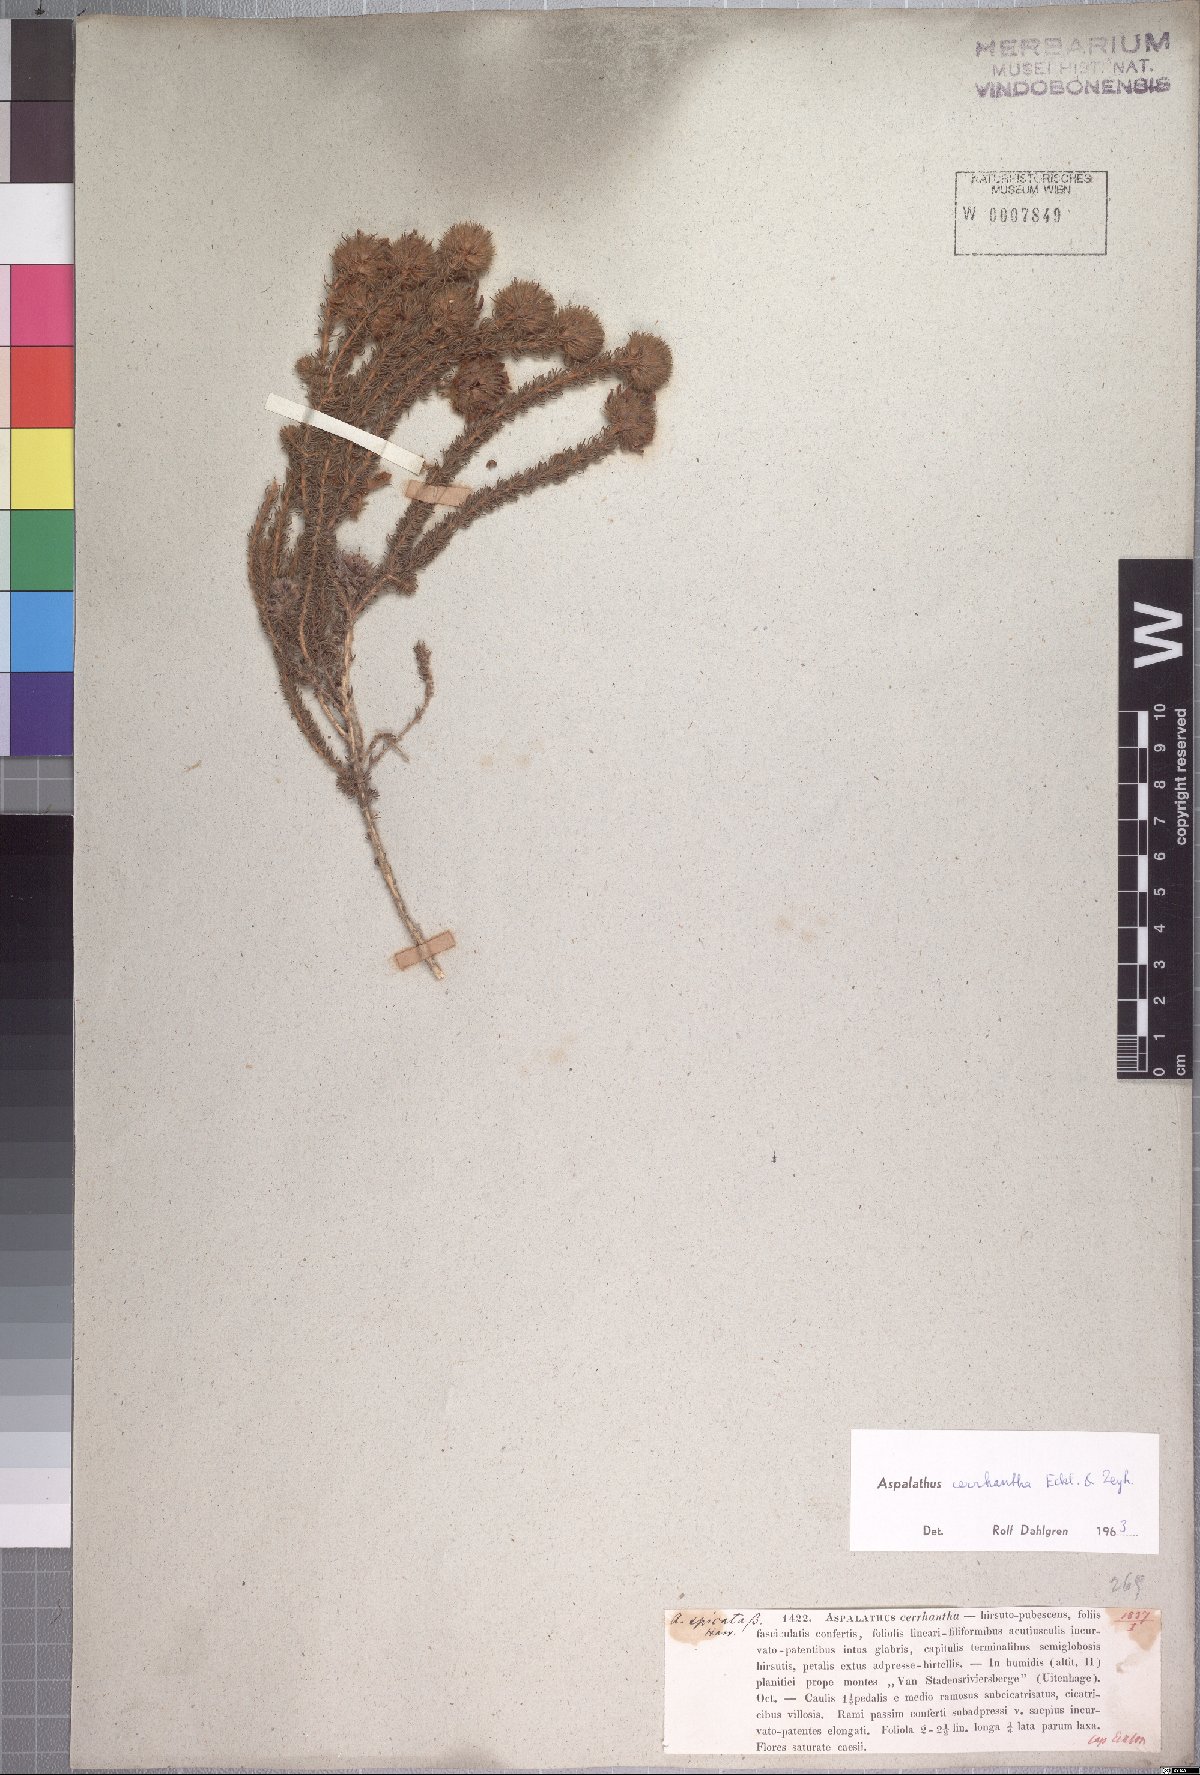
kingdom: Plantae
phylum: Tracheophyta
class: Magnoliopsida
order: Fabales
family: Fabaceae
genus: Aspalathus
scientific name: Aspalathus cerrhantha
